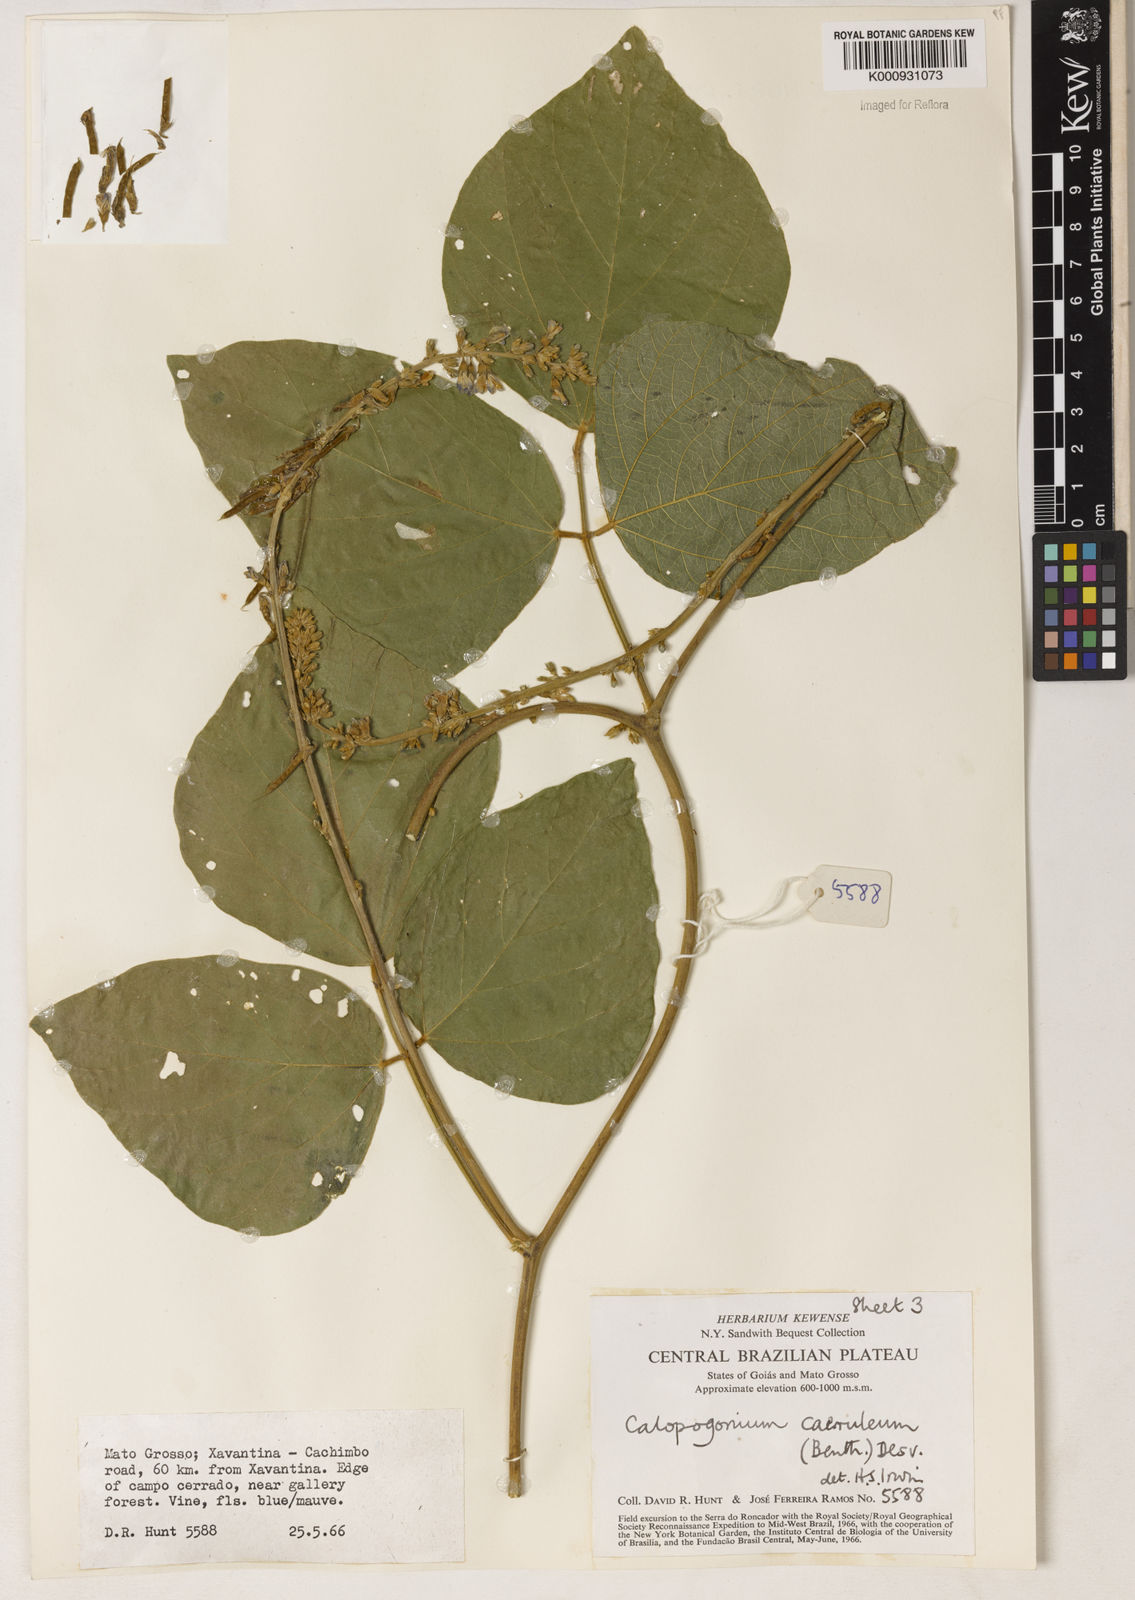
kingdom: Plantae
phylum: Tracheophyta
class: Magnoliopsida
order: Fabales
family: Fabaceae
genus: Calopogonium
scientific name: Calopogonium caeruleum
